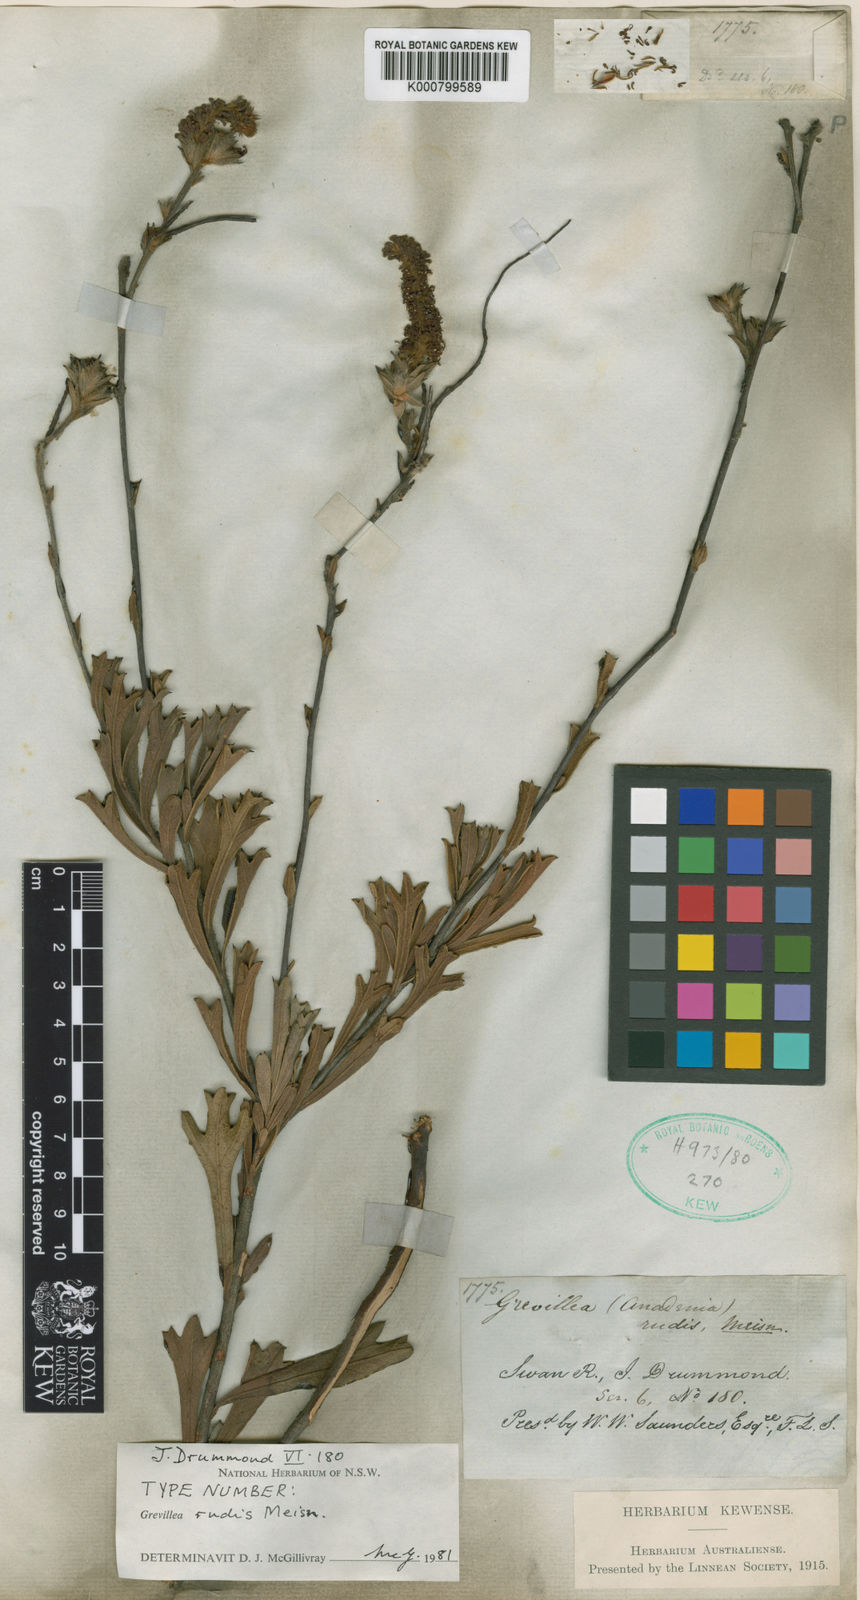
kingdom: Plantae
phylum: Tracheophyta
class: Magnoliopsida
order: Proteales
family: Proteaceae
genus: Grevillea
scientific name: Grevillea rudis
